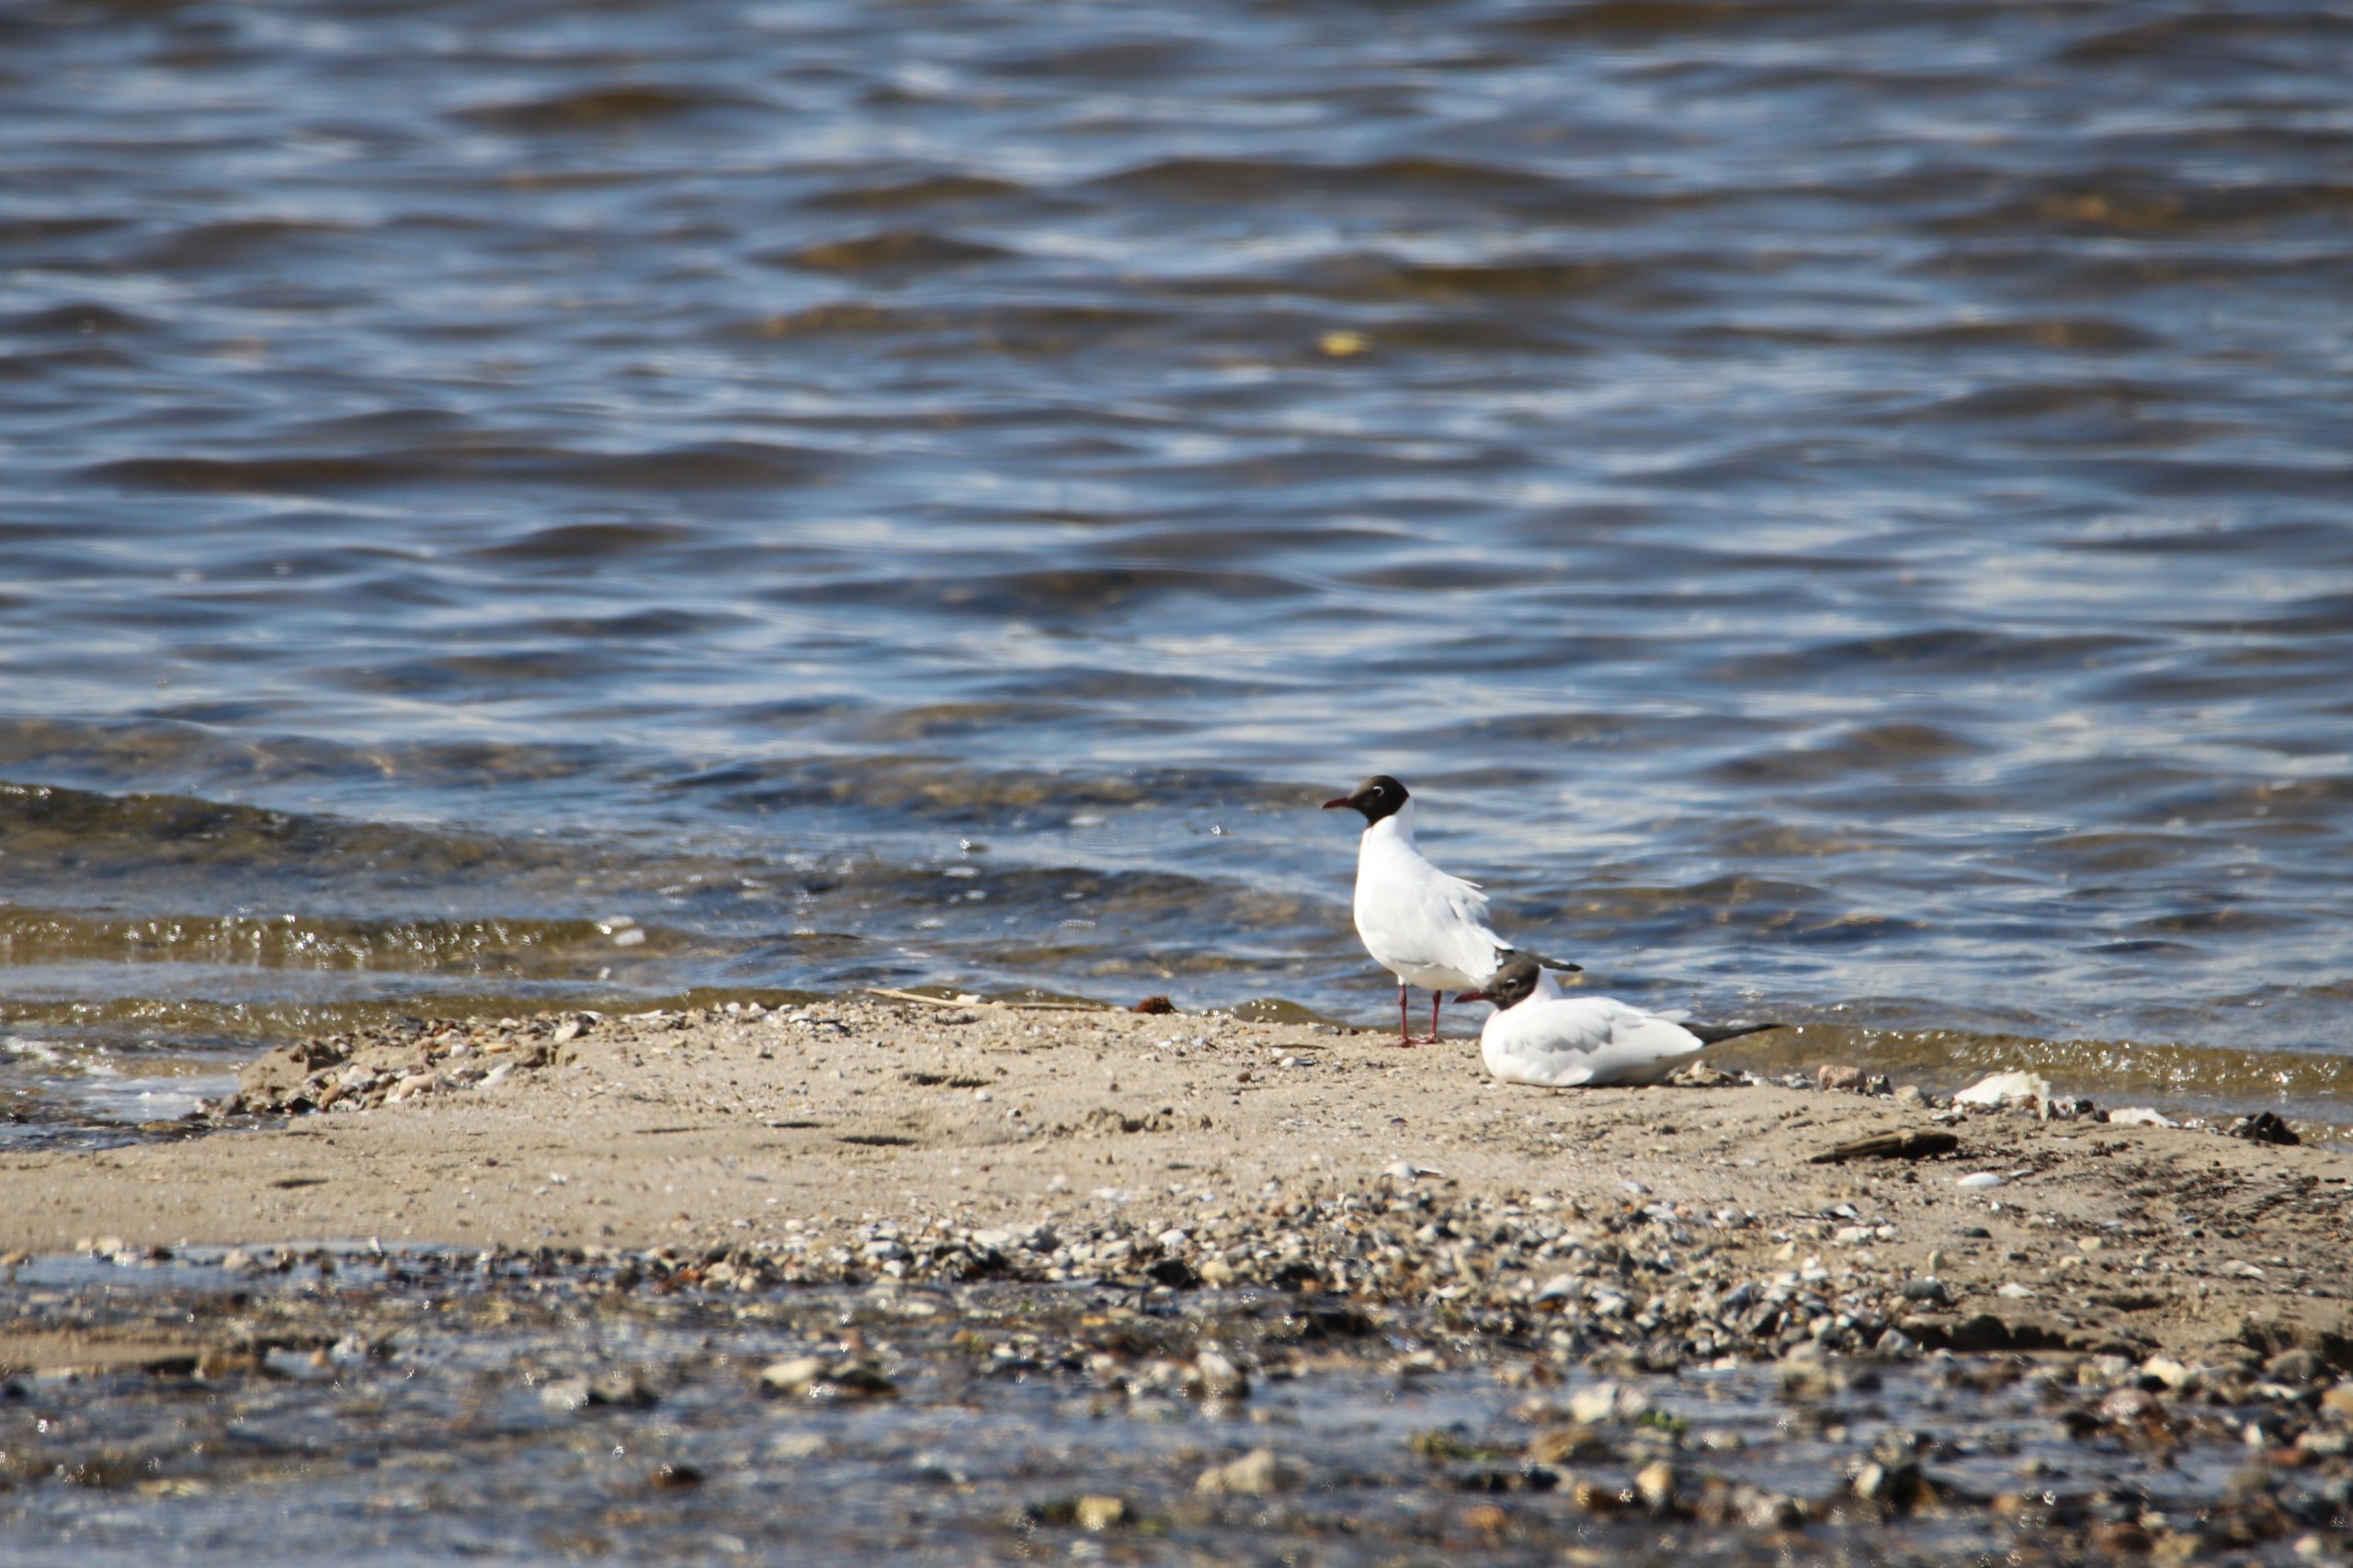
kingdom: Animalia
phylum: Chordata
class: Aves
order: Charadriiformes
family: Laridae
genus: Chroicocephalus
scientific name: Chroicocephalus ridibundus
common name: Hættemåge
